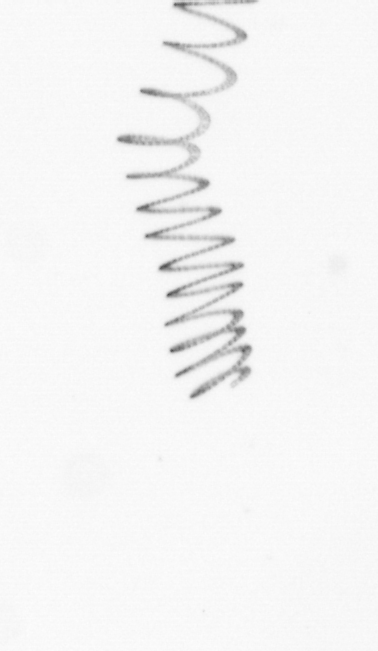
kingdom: Chromista
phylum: Ochrophyta
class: Bacillariophyceae
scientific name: Bacillariophyceae
